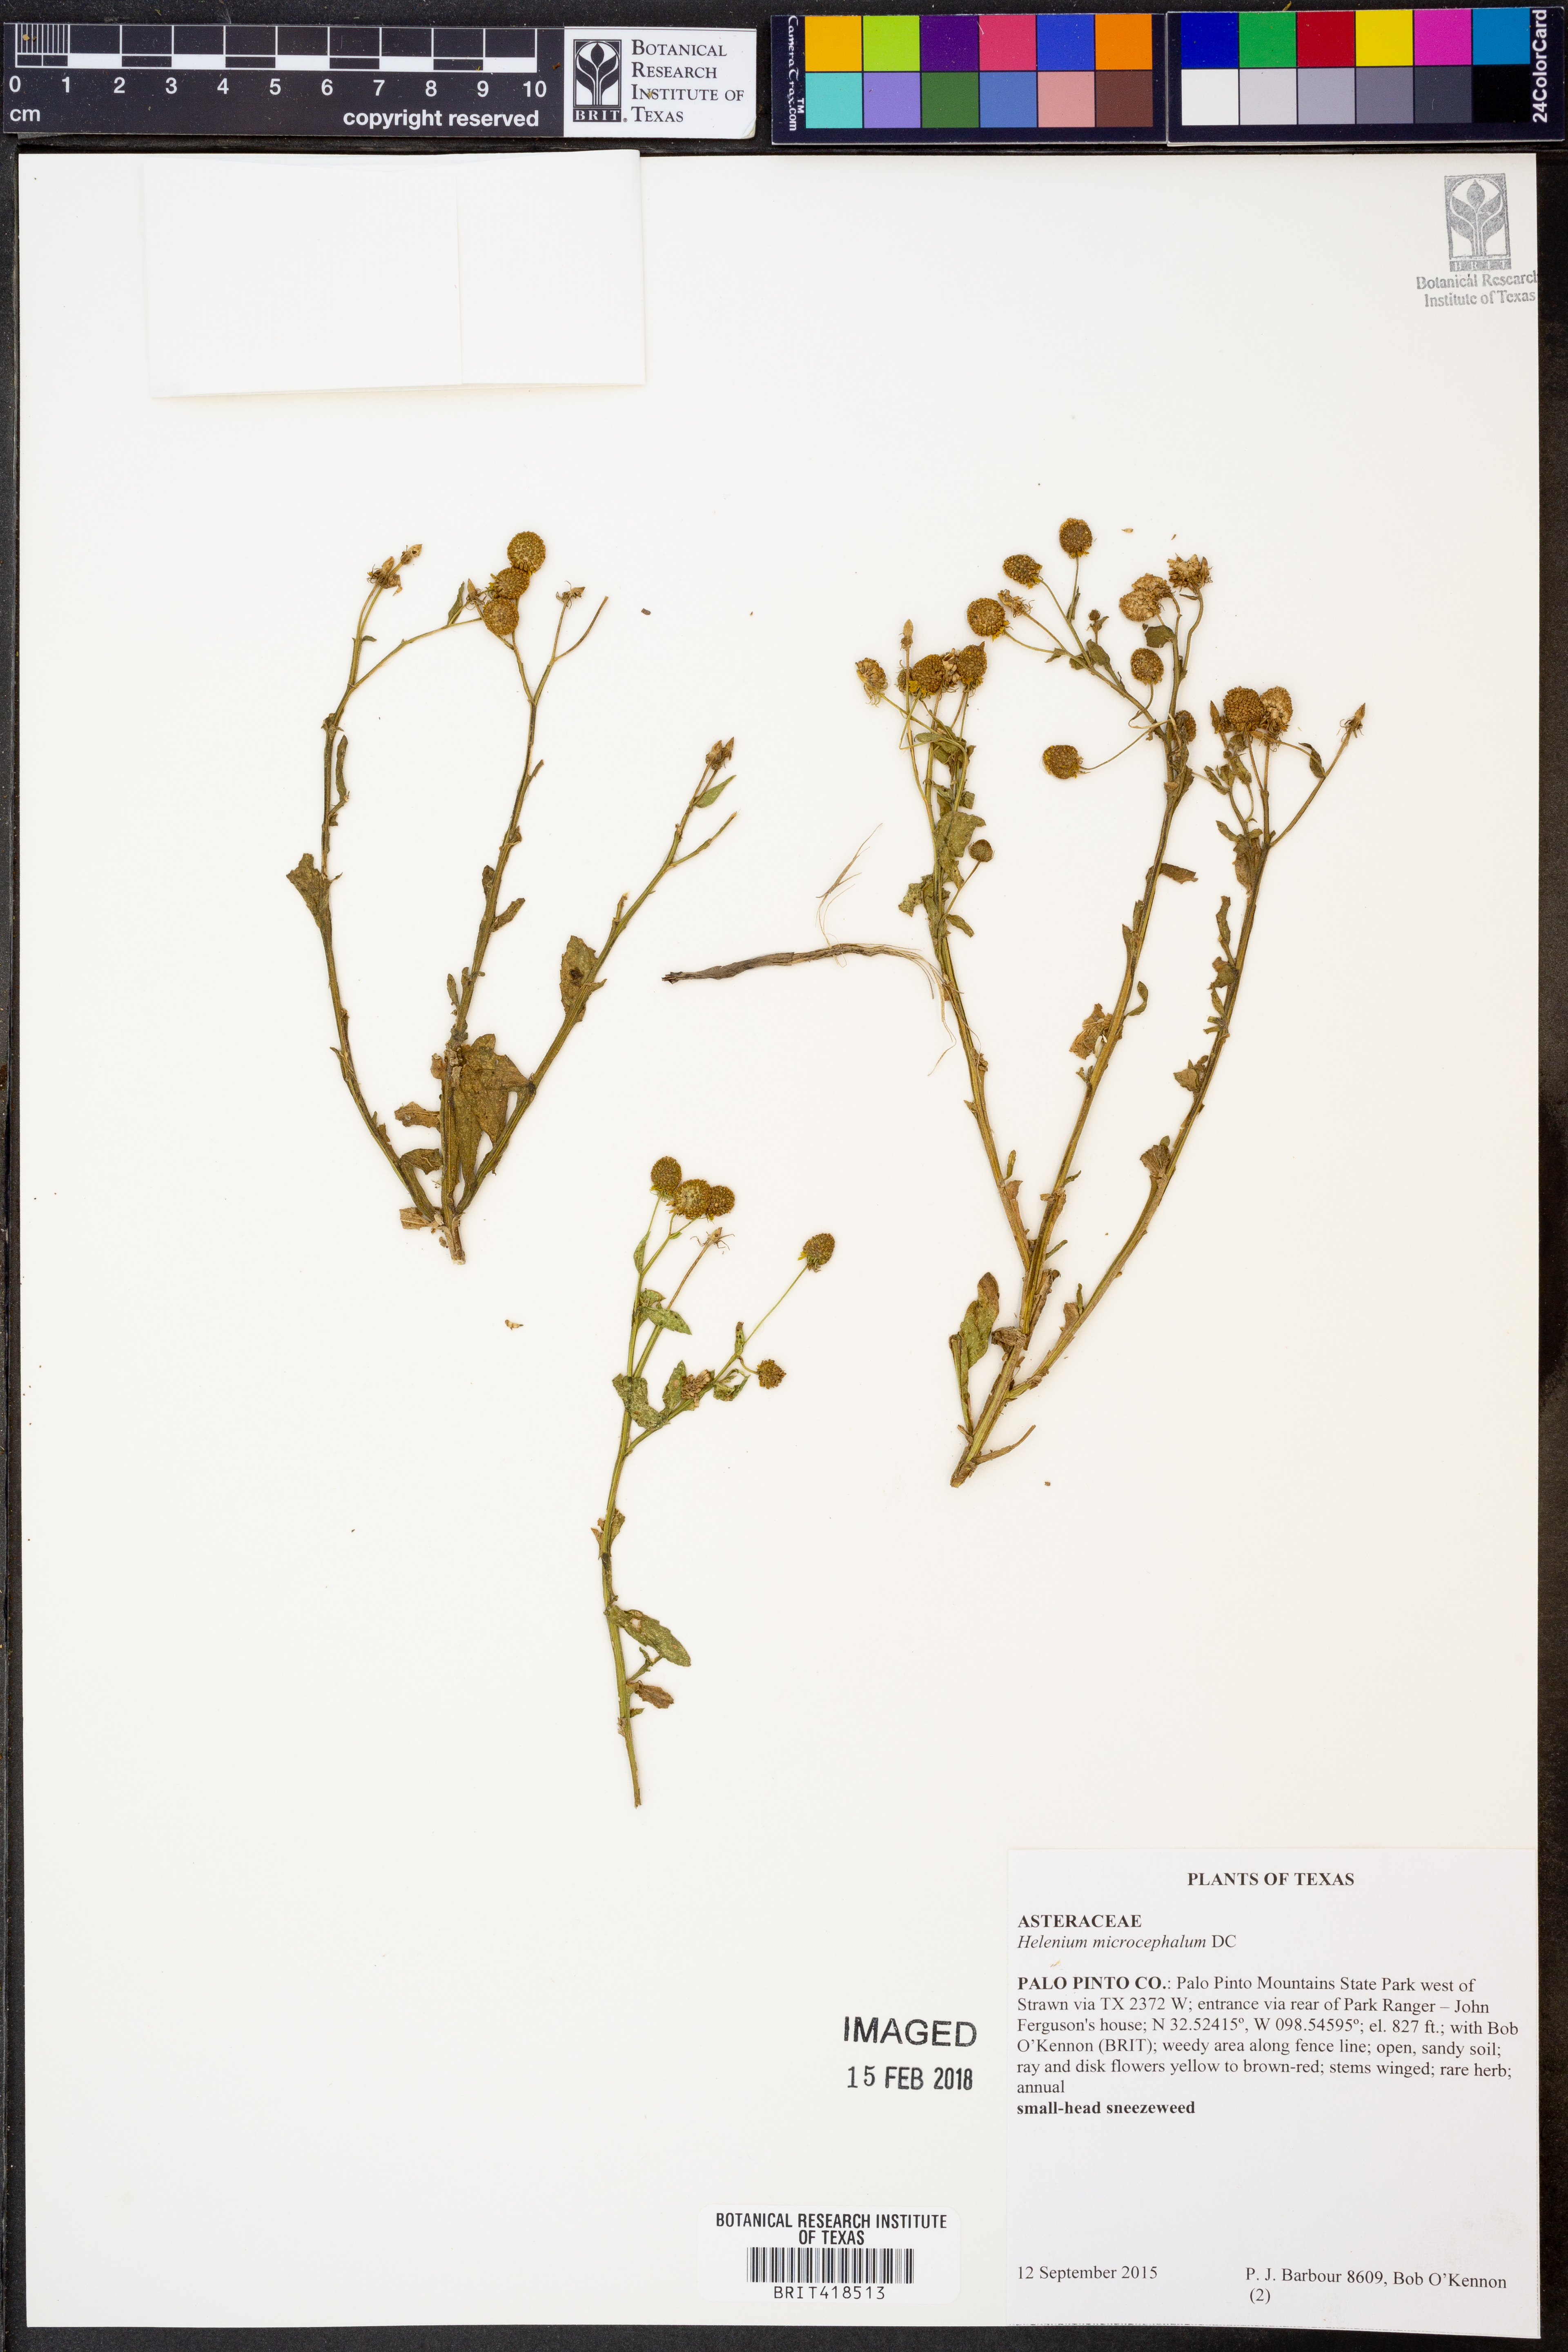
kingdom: Plantae
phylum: Tracheophyta
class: Magnoliopsida
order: Asterales
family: Asteraceae
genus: Helenium
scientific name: Helenium microcephalum
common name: Smallhead sneezeweed
